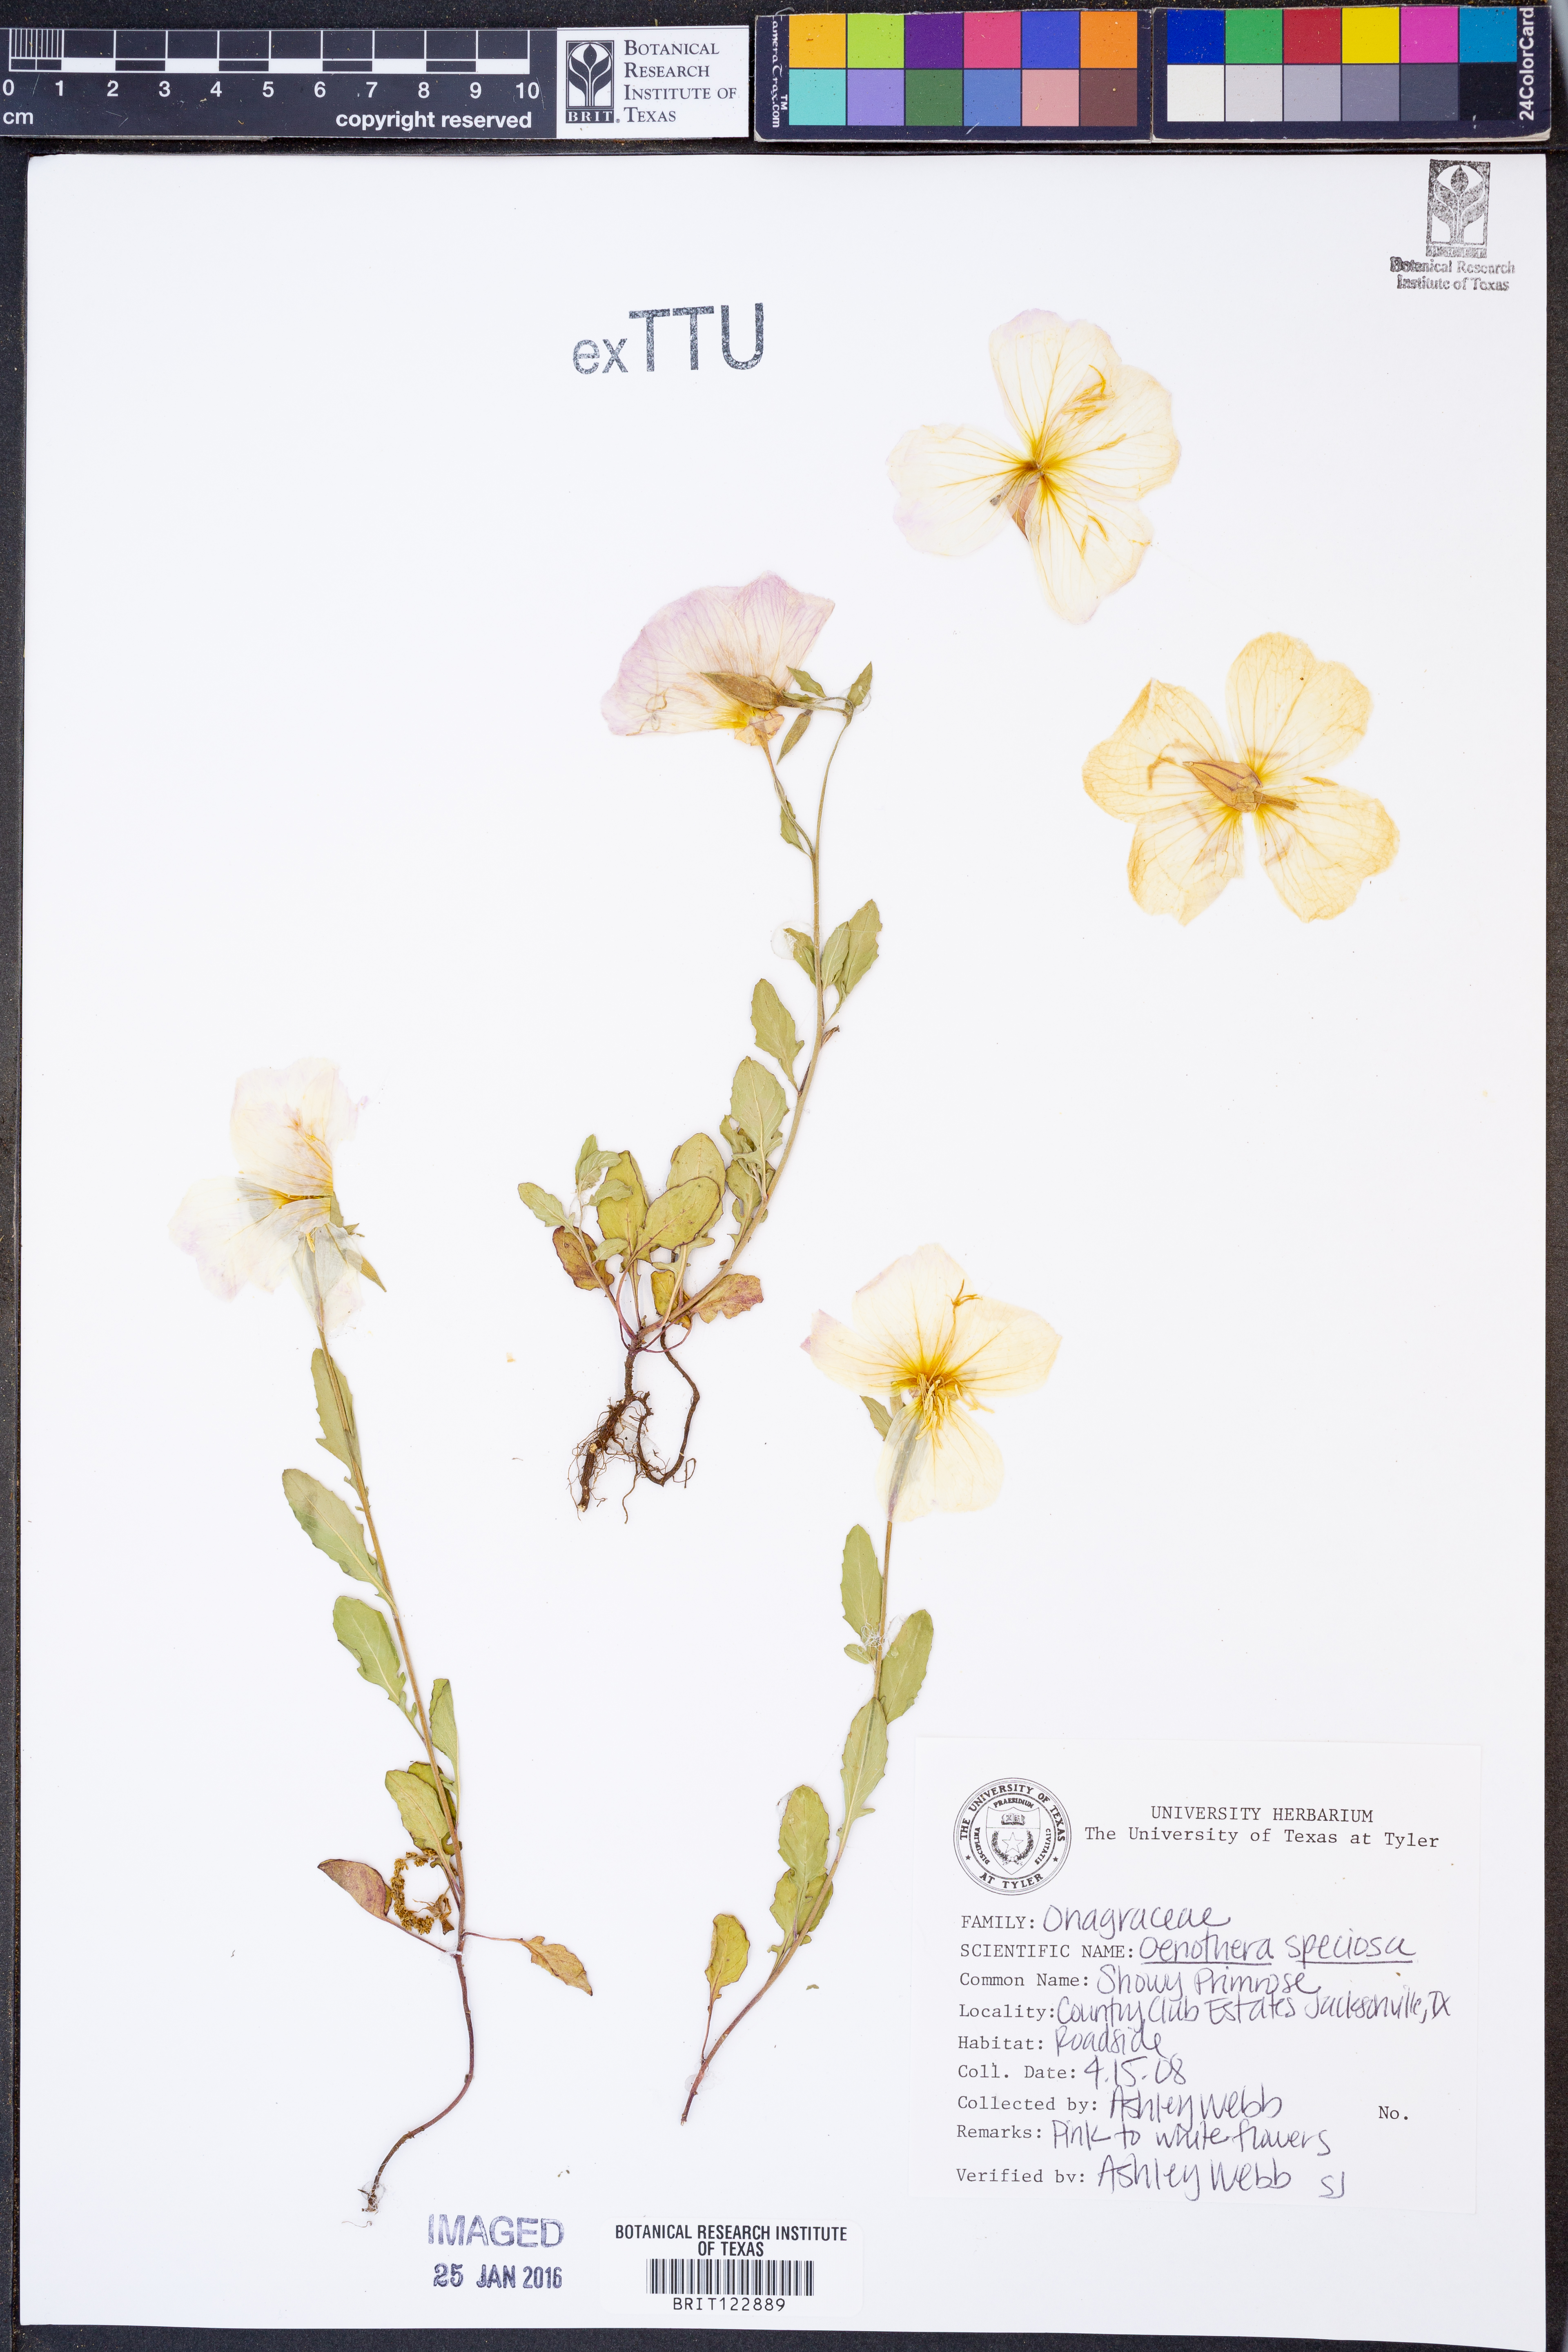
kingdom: Plantae
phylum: Tracheophyta
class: Magnoliopsida
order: Myrtales
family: Onagraceae
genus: Oenothera
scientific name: Oenothera speciosa
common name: White evening-primrose
